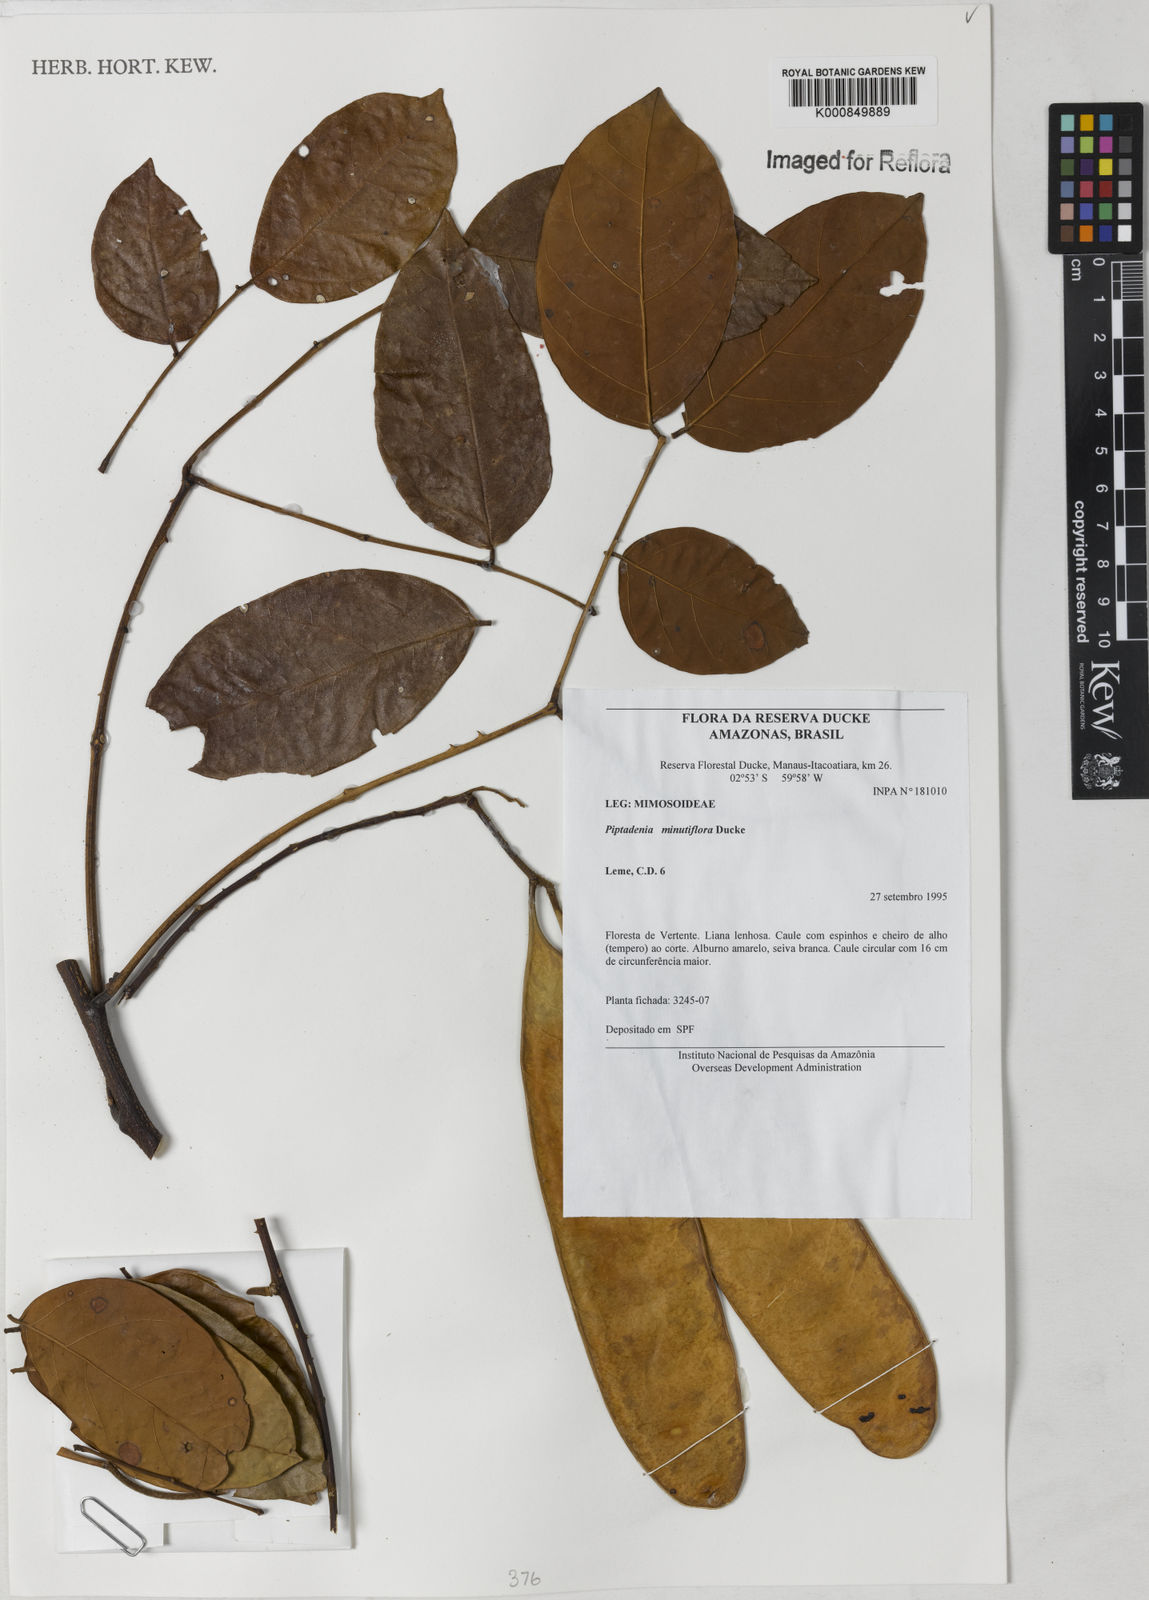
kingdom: Plantae
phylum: Tracheophyta
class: Magnoliopsida
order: Fabales
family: Fabaceae
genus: Piptadenia
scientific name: Piptadenia minutiflora
